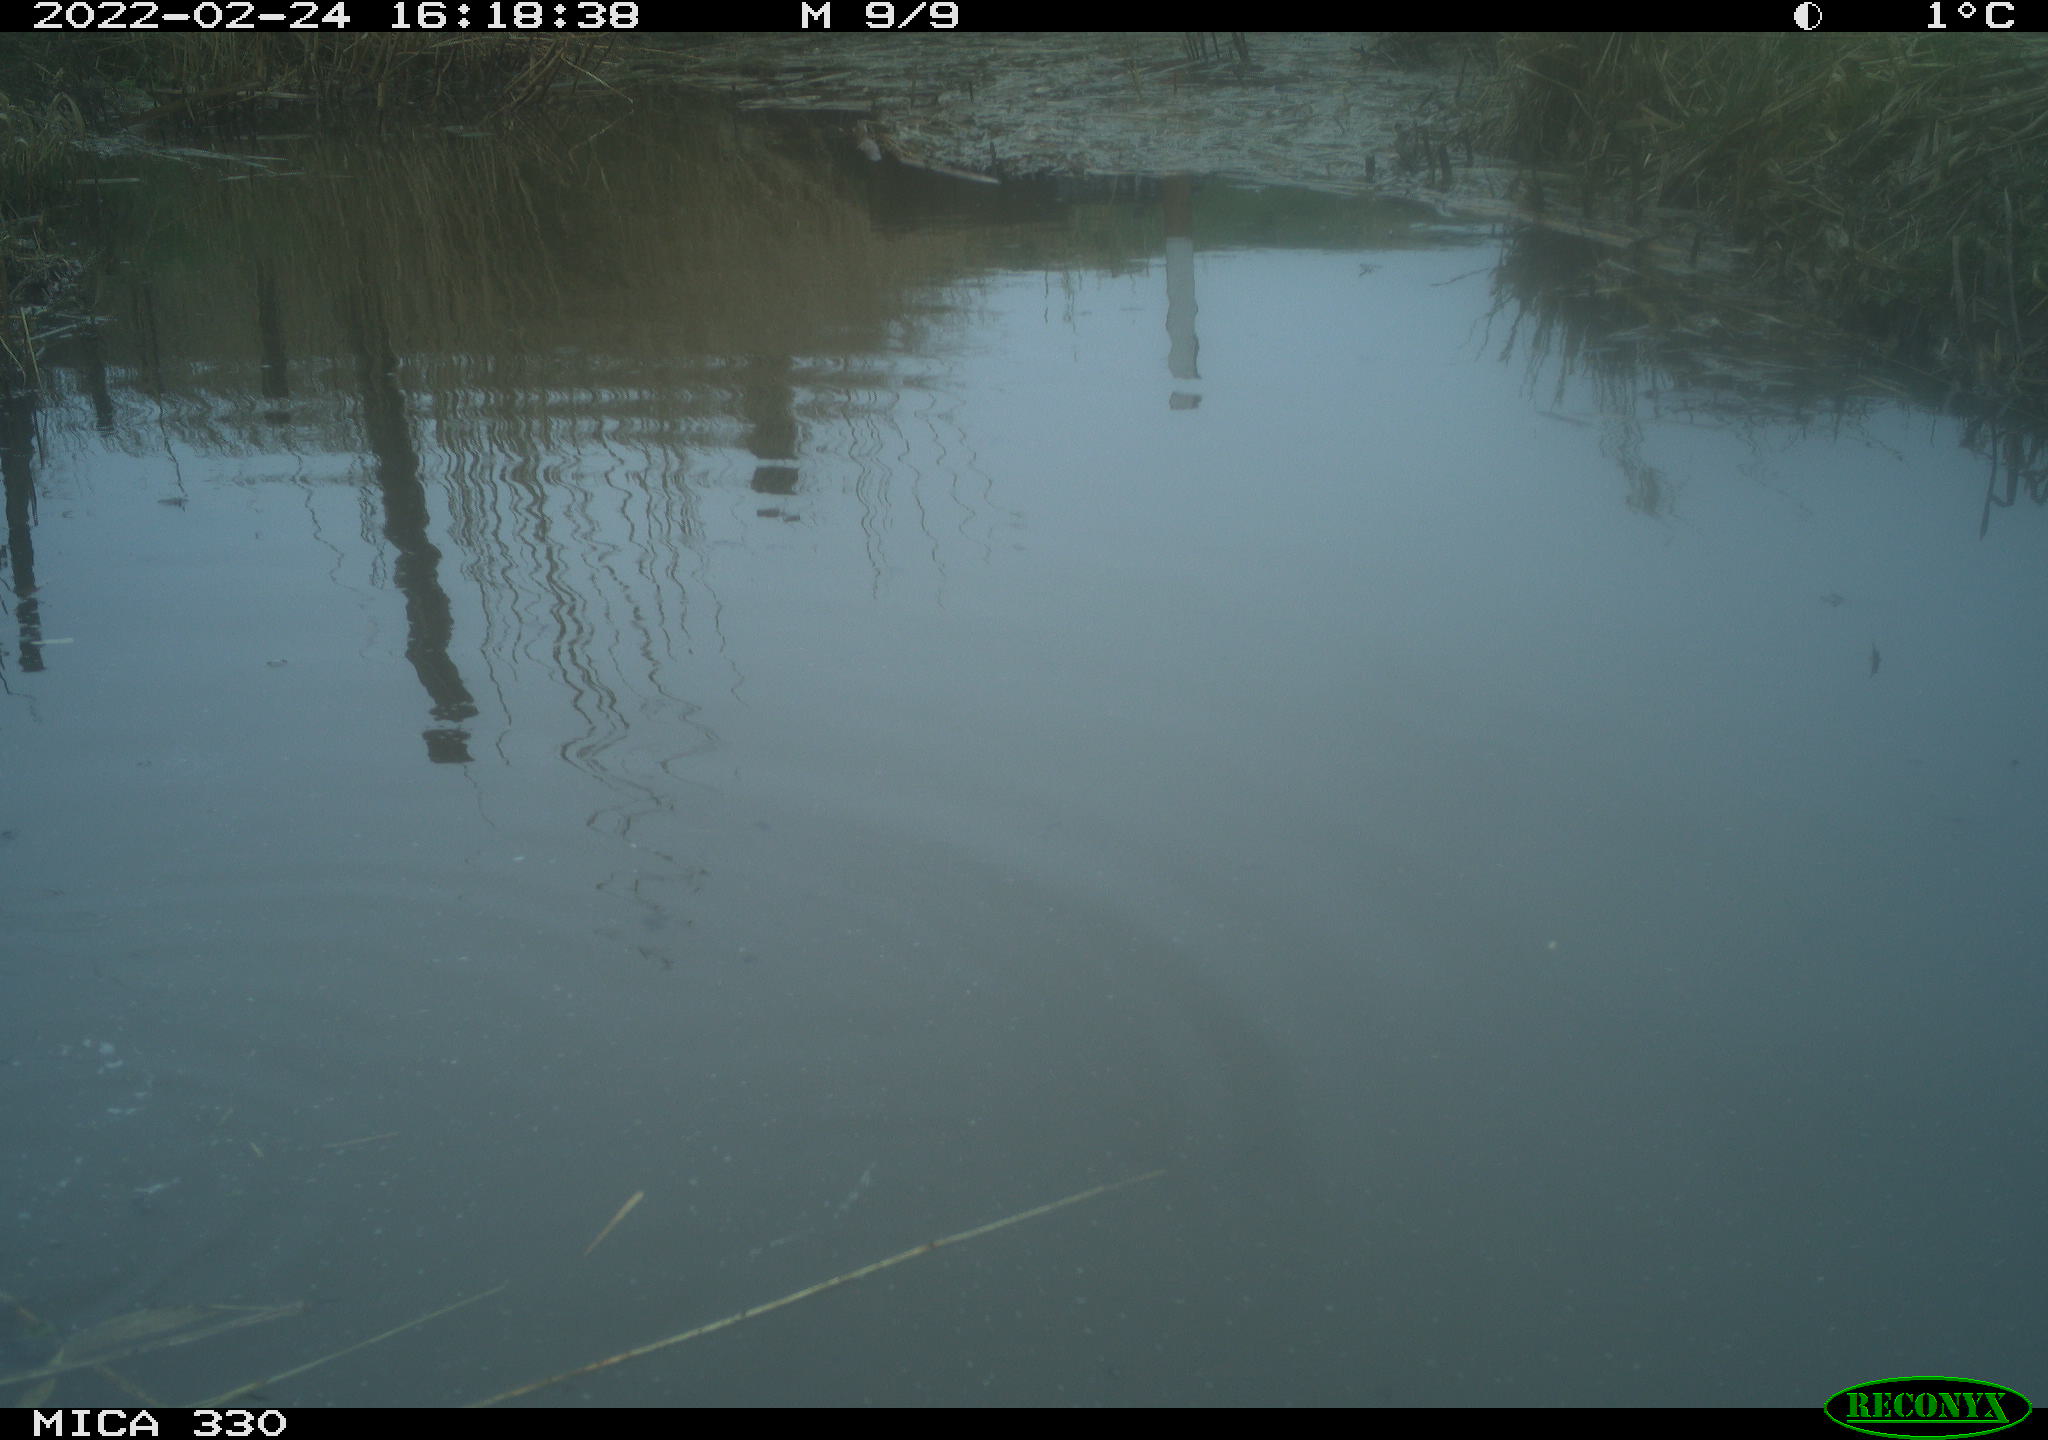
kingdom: Animalia
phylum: Chordata
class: Aves
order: Gruiformes
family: Rallidae
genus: Fulica
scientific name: Fulica atra
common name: Eurasian coot
